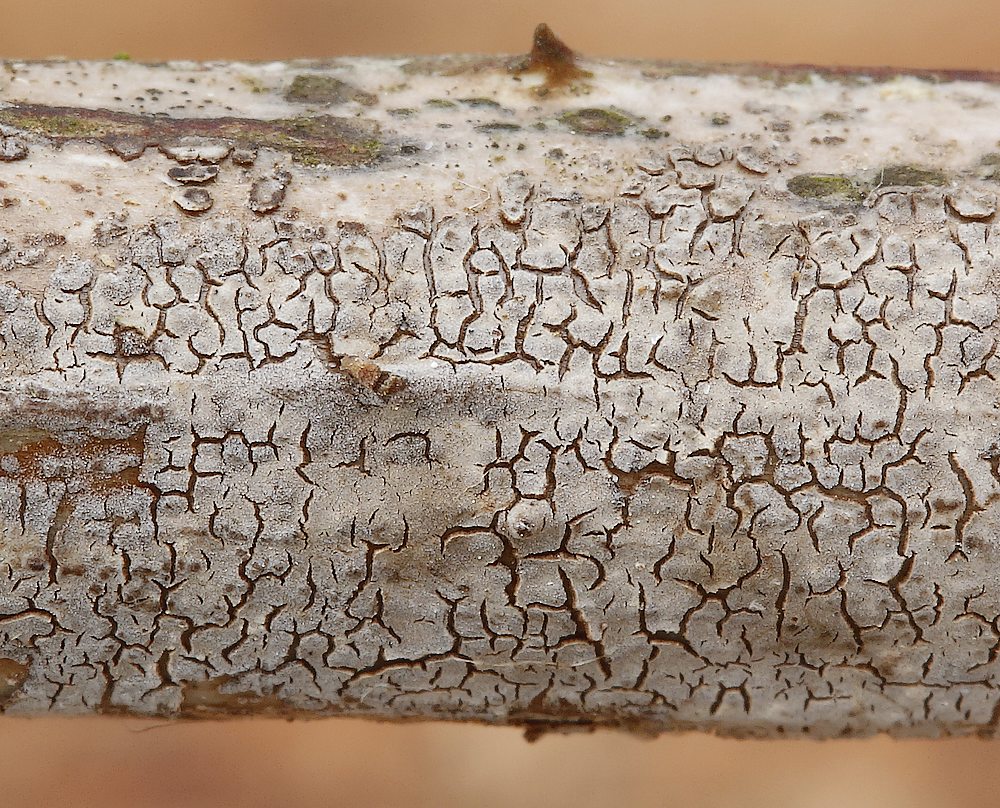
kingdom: Fungi
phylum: Basidiomycota
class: Agaricomycetes
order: Russulales
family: Peniophoraceae
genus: Peniophora
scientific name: Peniophora
